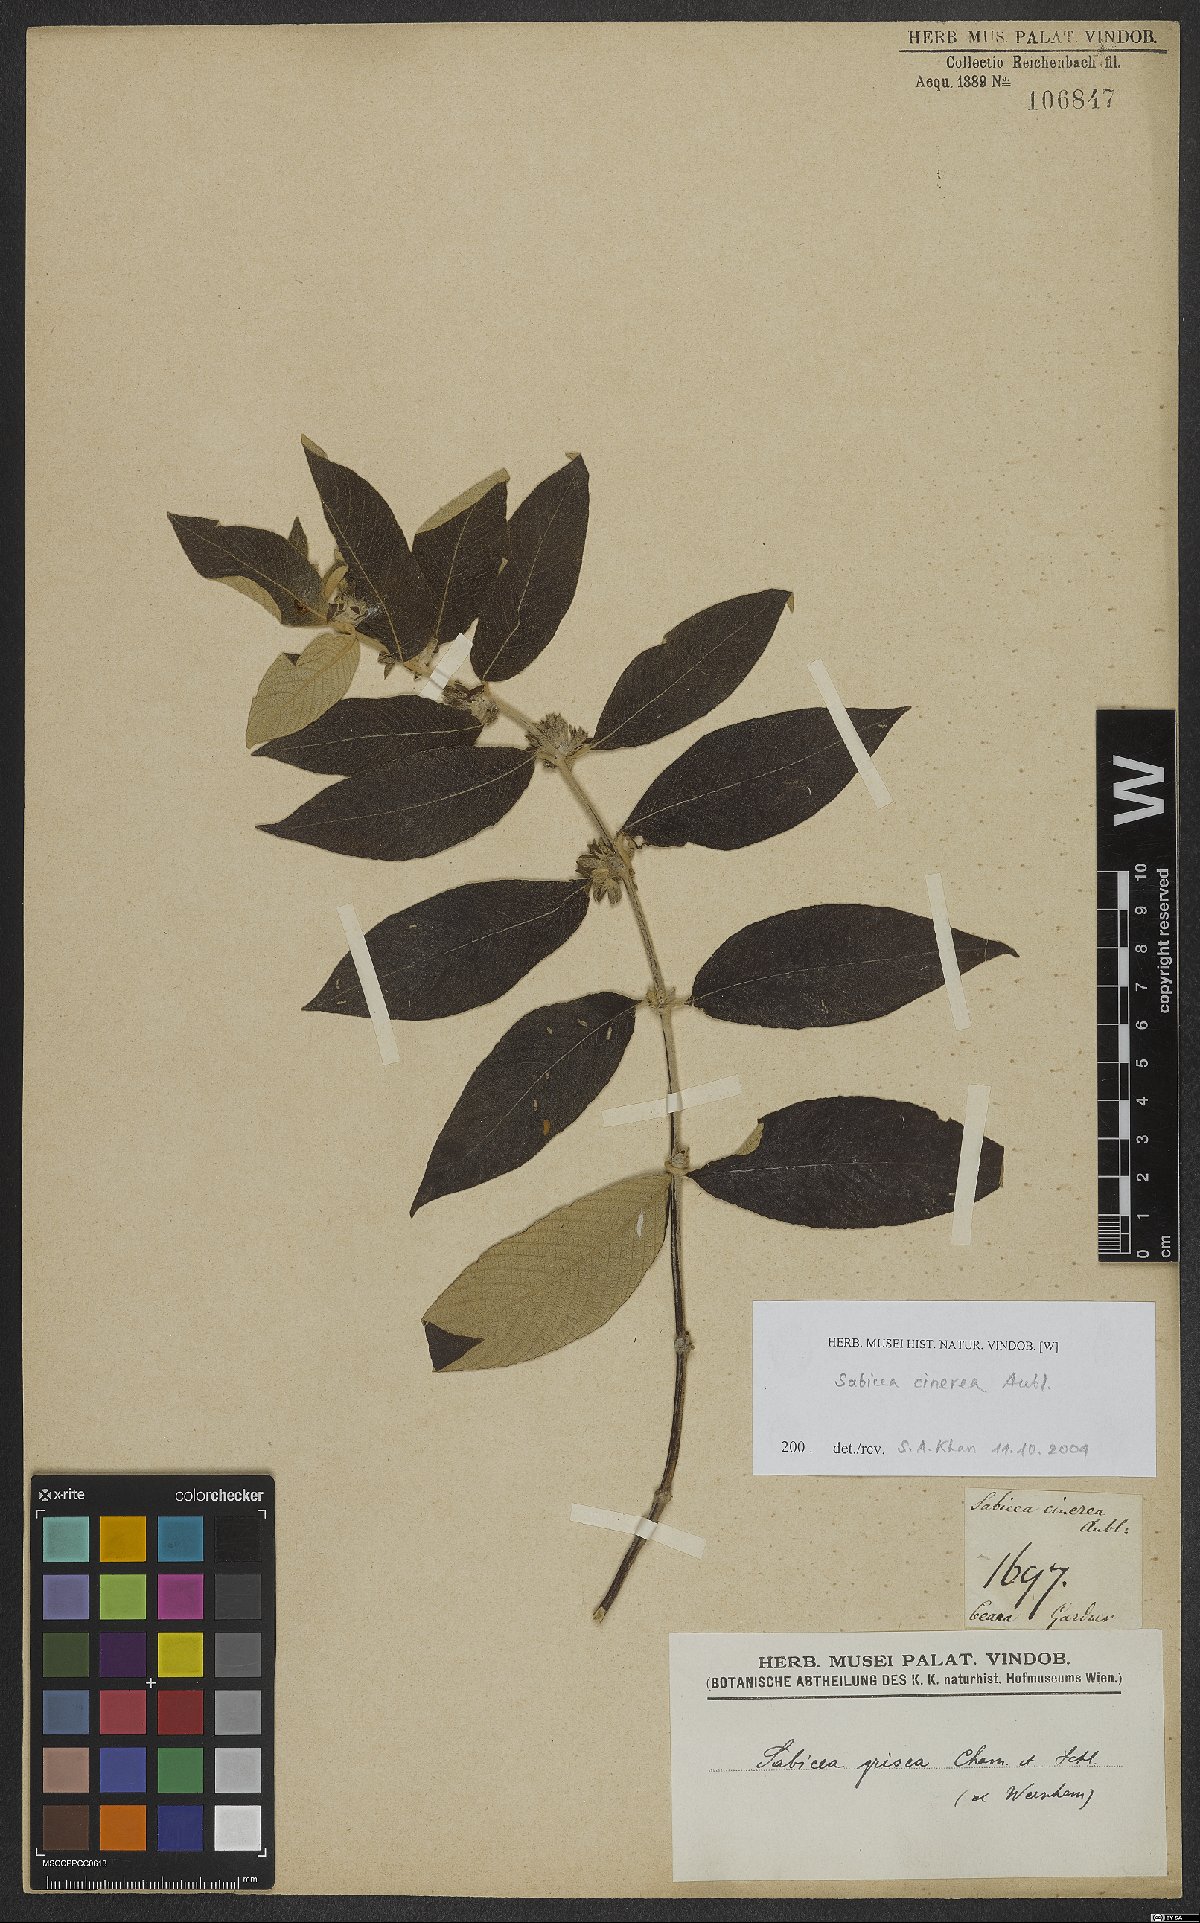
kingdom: Plantae
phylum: Tracheophyta
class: Magnoliopsida
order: Gentianales
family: Rubiaceae
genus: Sabicea
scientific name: Sabicea cinerea
